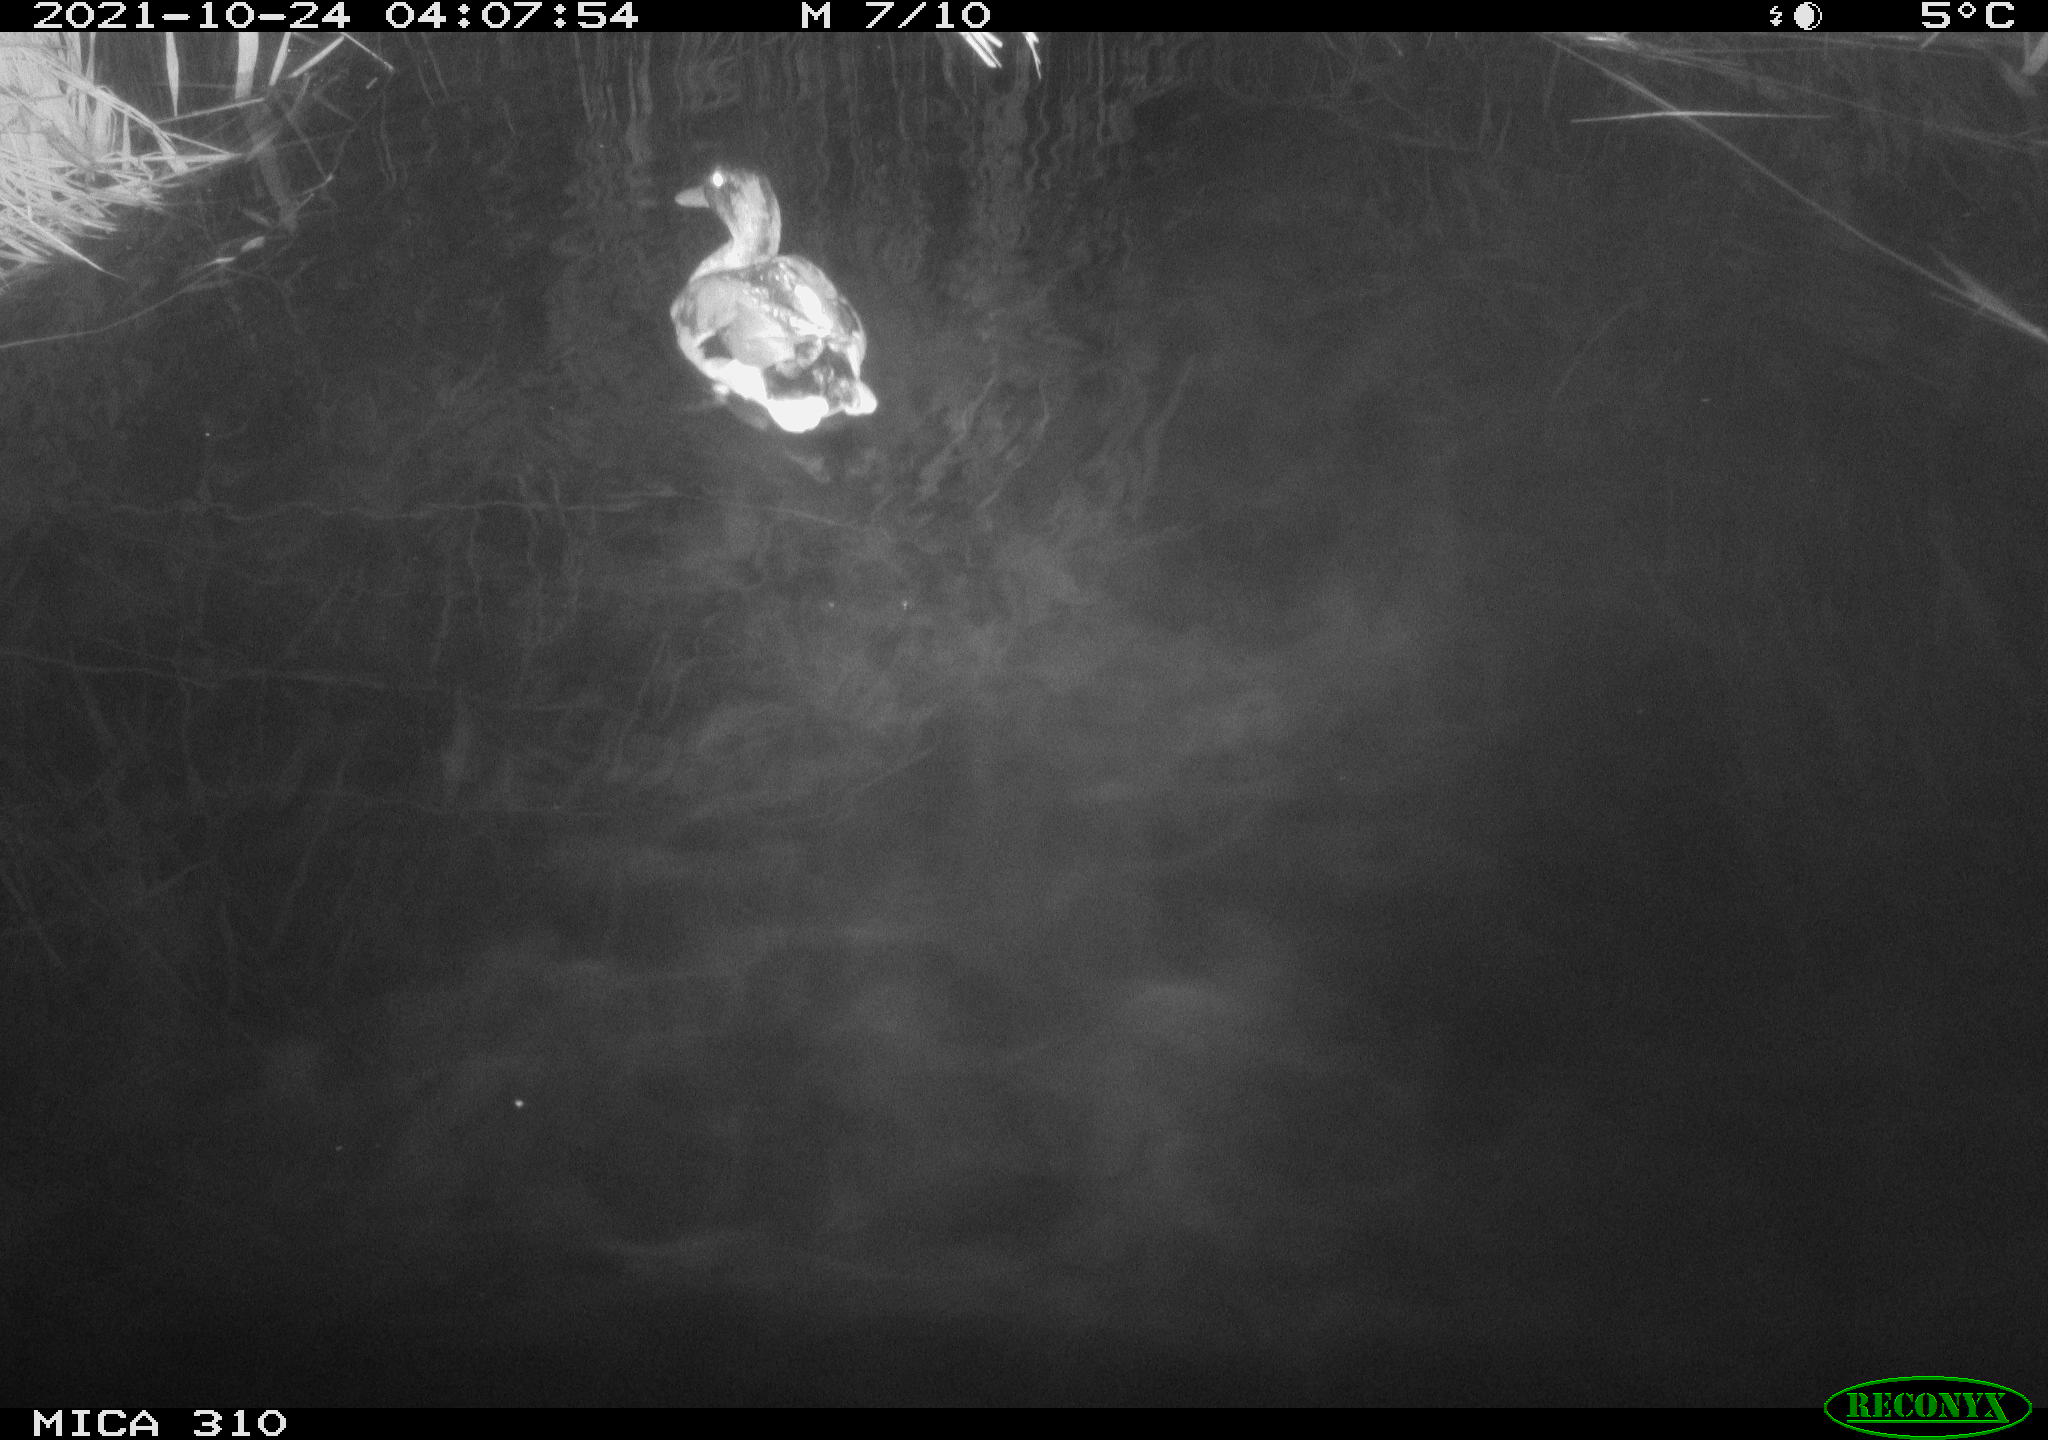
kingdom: Animalia
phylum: Chordata
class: Aves
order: Anseriformes
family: Anatidae
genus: Anas
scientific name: Anas platyrhynchos
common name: Mallard
